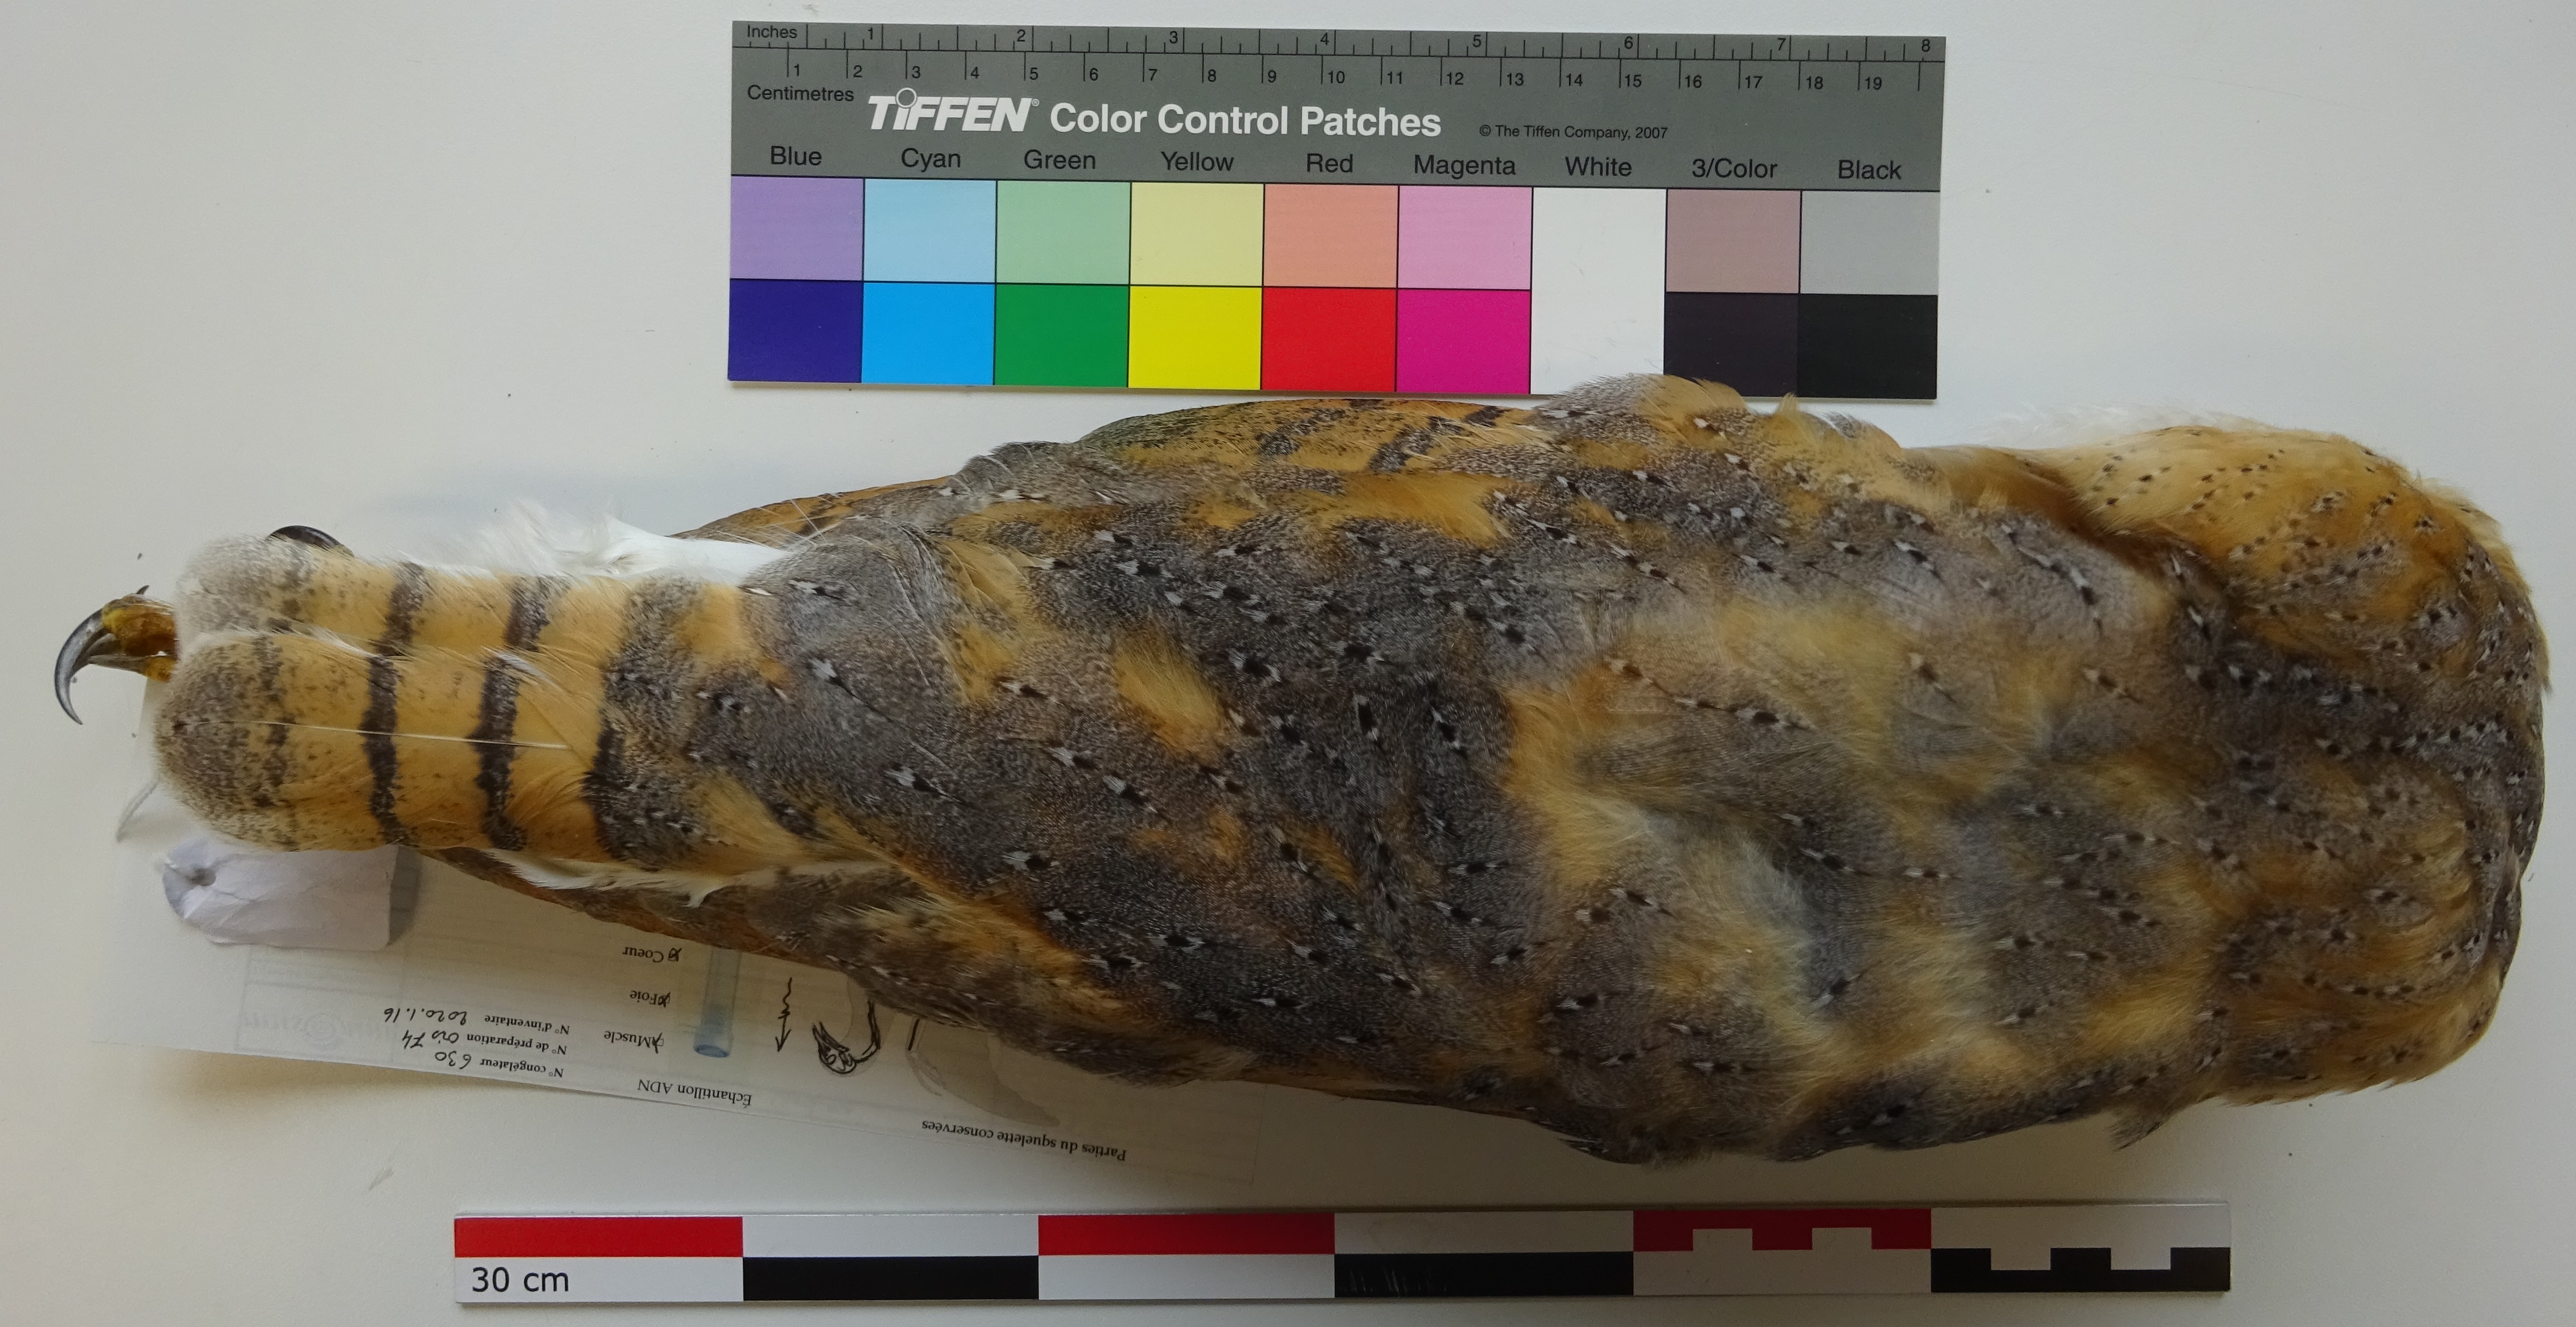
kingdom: Animalia
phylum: Chordata
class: Aves
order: Strigiformes
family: Tytonidae
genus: Tyto
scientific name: Tyto alba
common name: Barn owl
